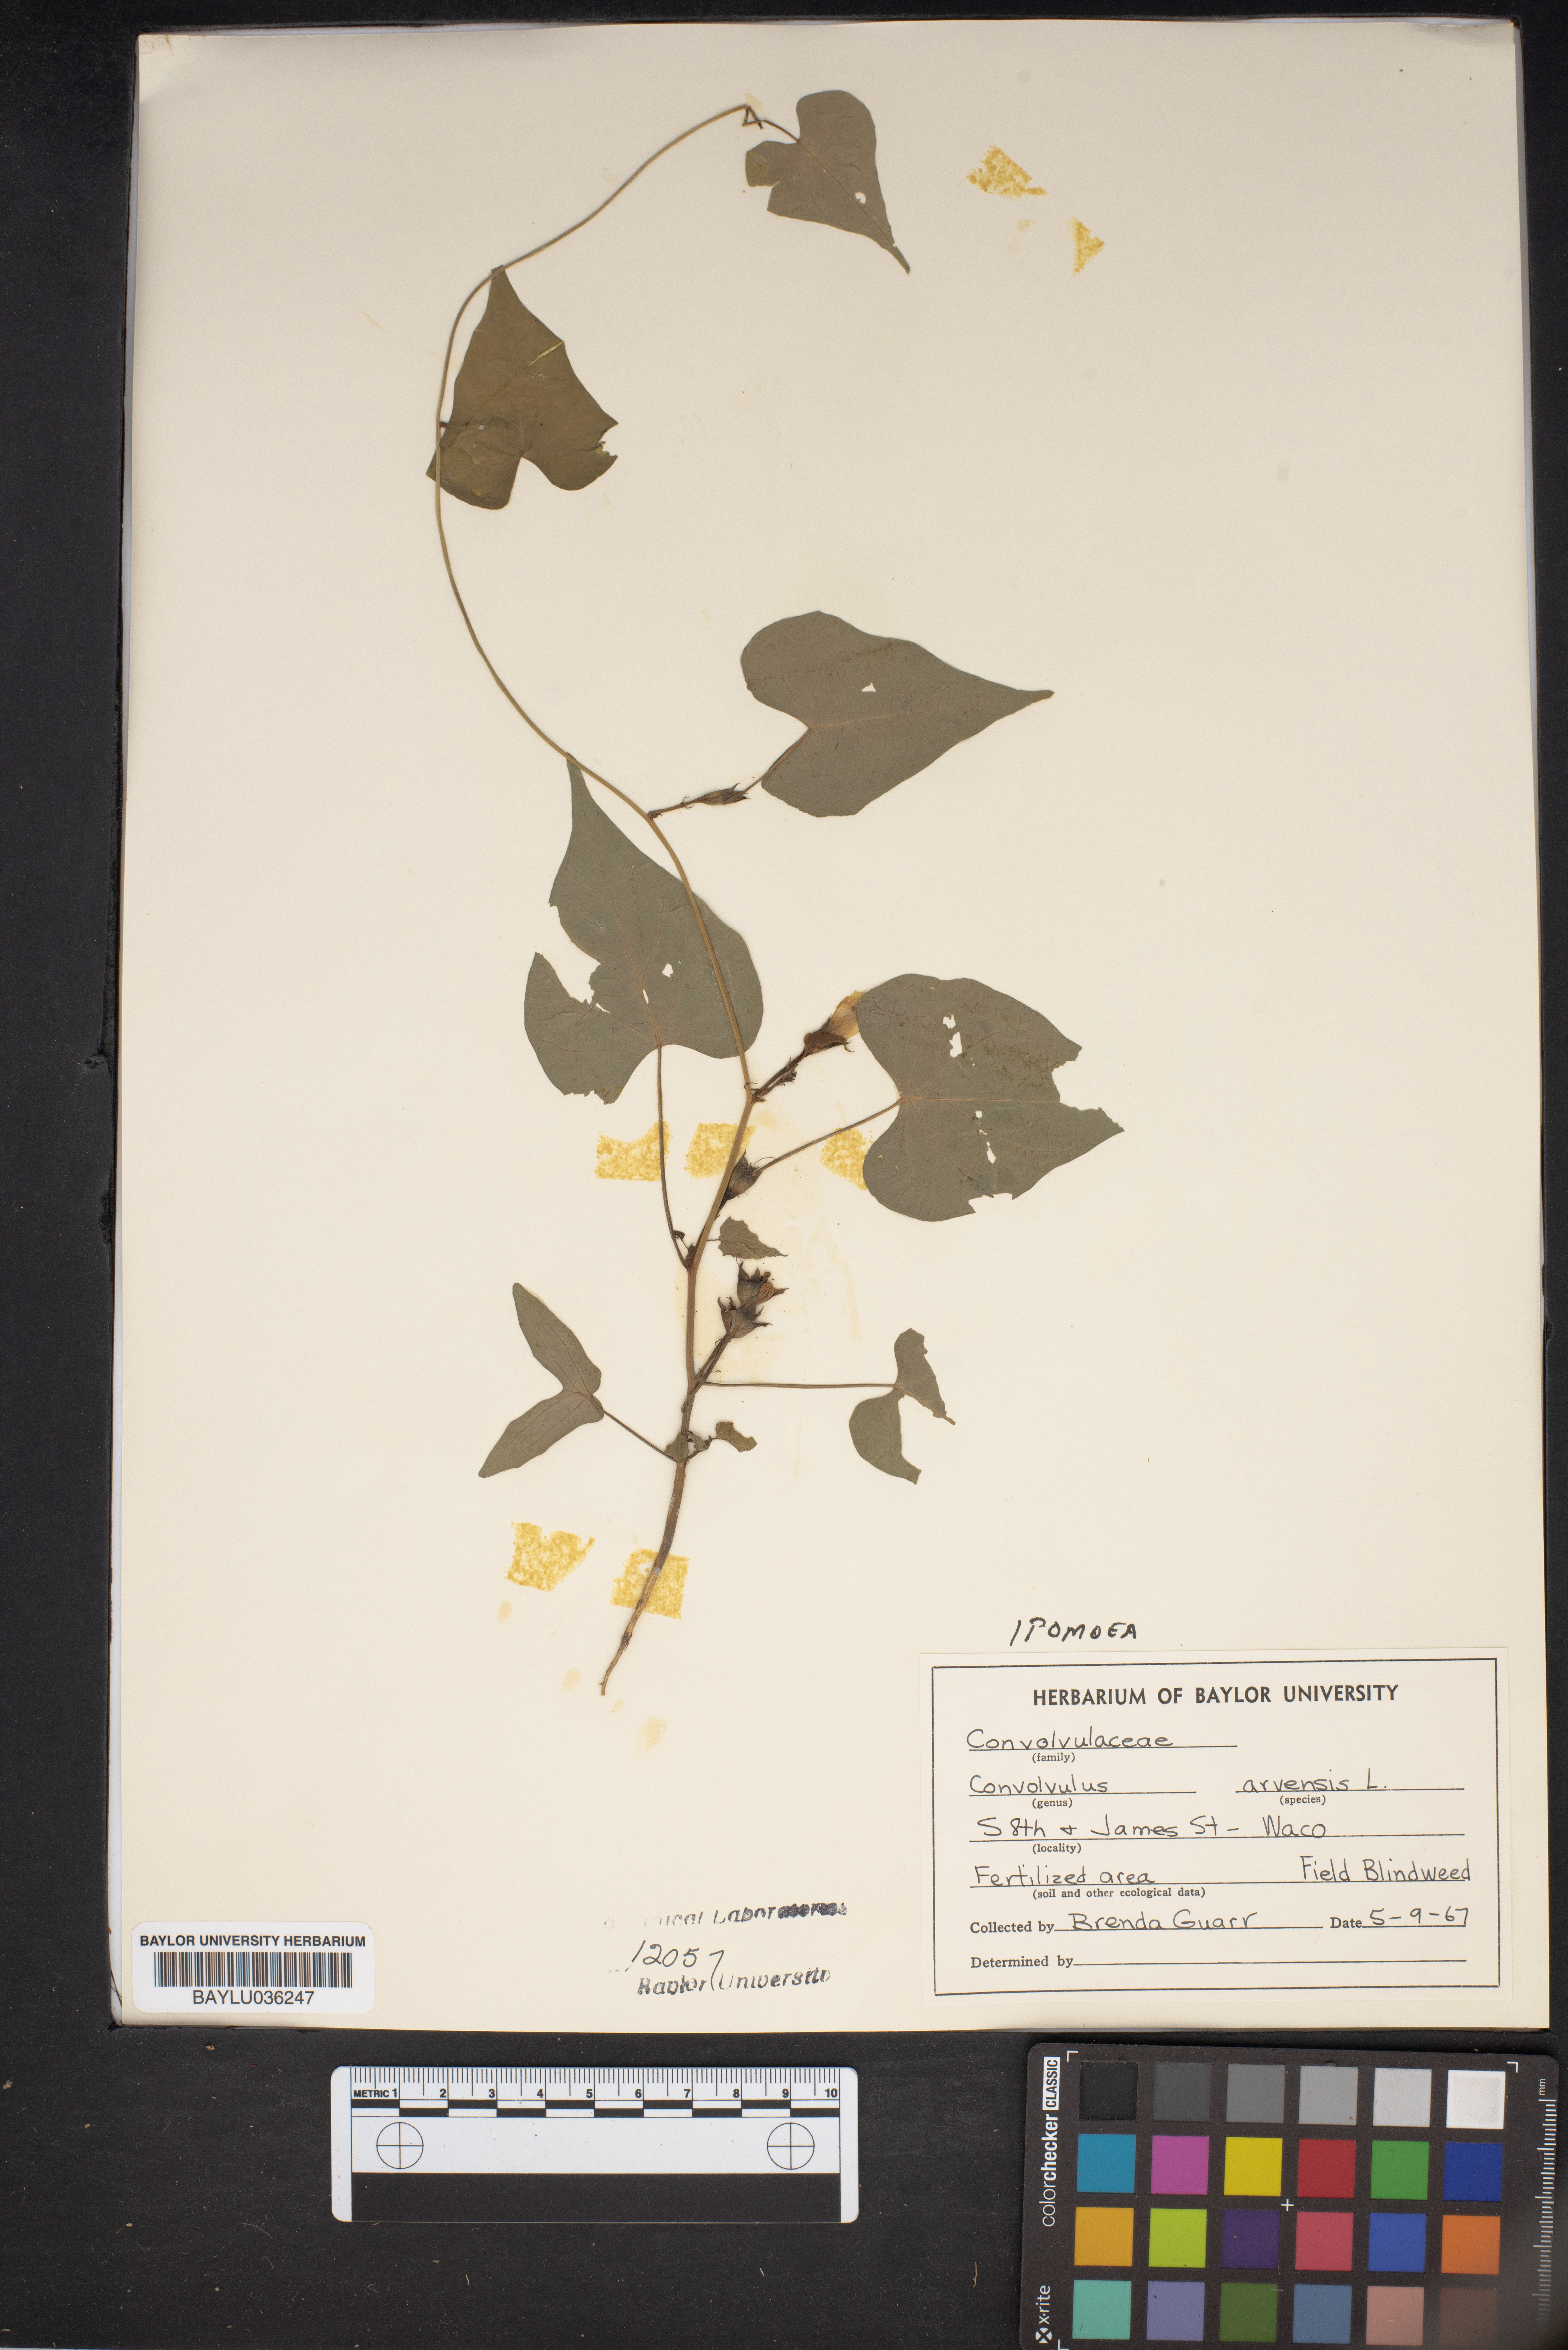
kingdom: Plantae
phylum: Tracheophyta
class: Magnoliopsida
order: Solanales
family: Convolvulaceae
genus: Convolvulus
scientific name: Convolvulus arvensis
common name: Field bindweed
